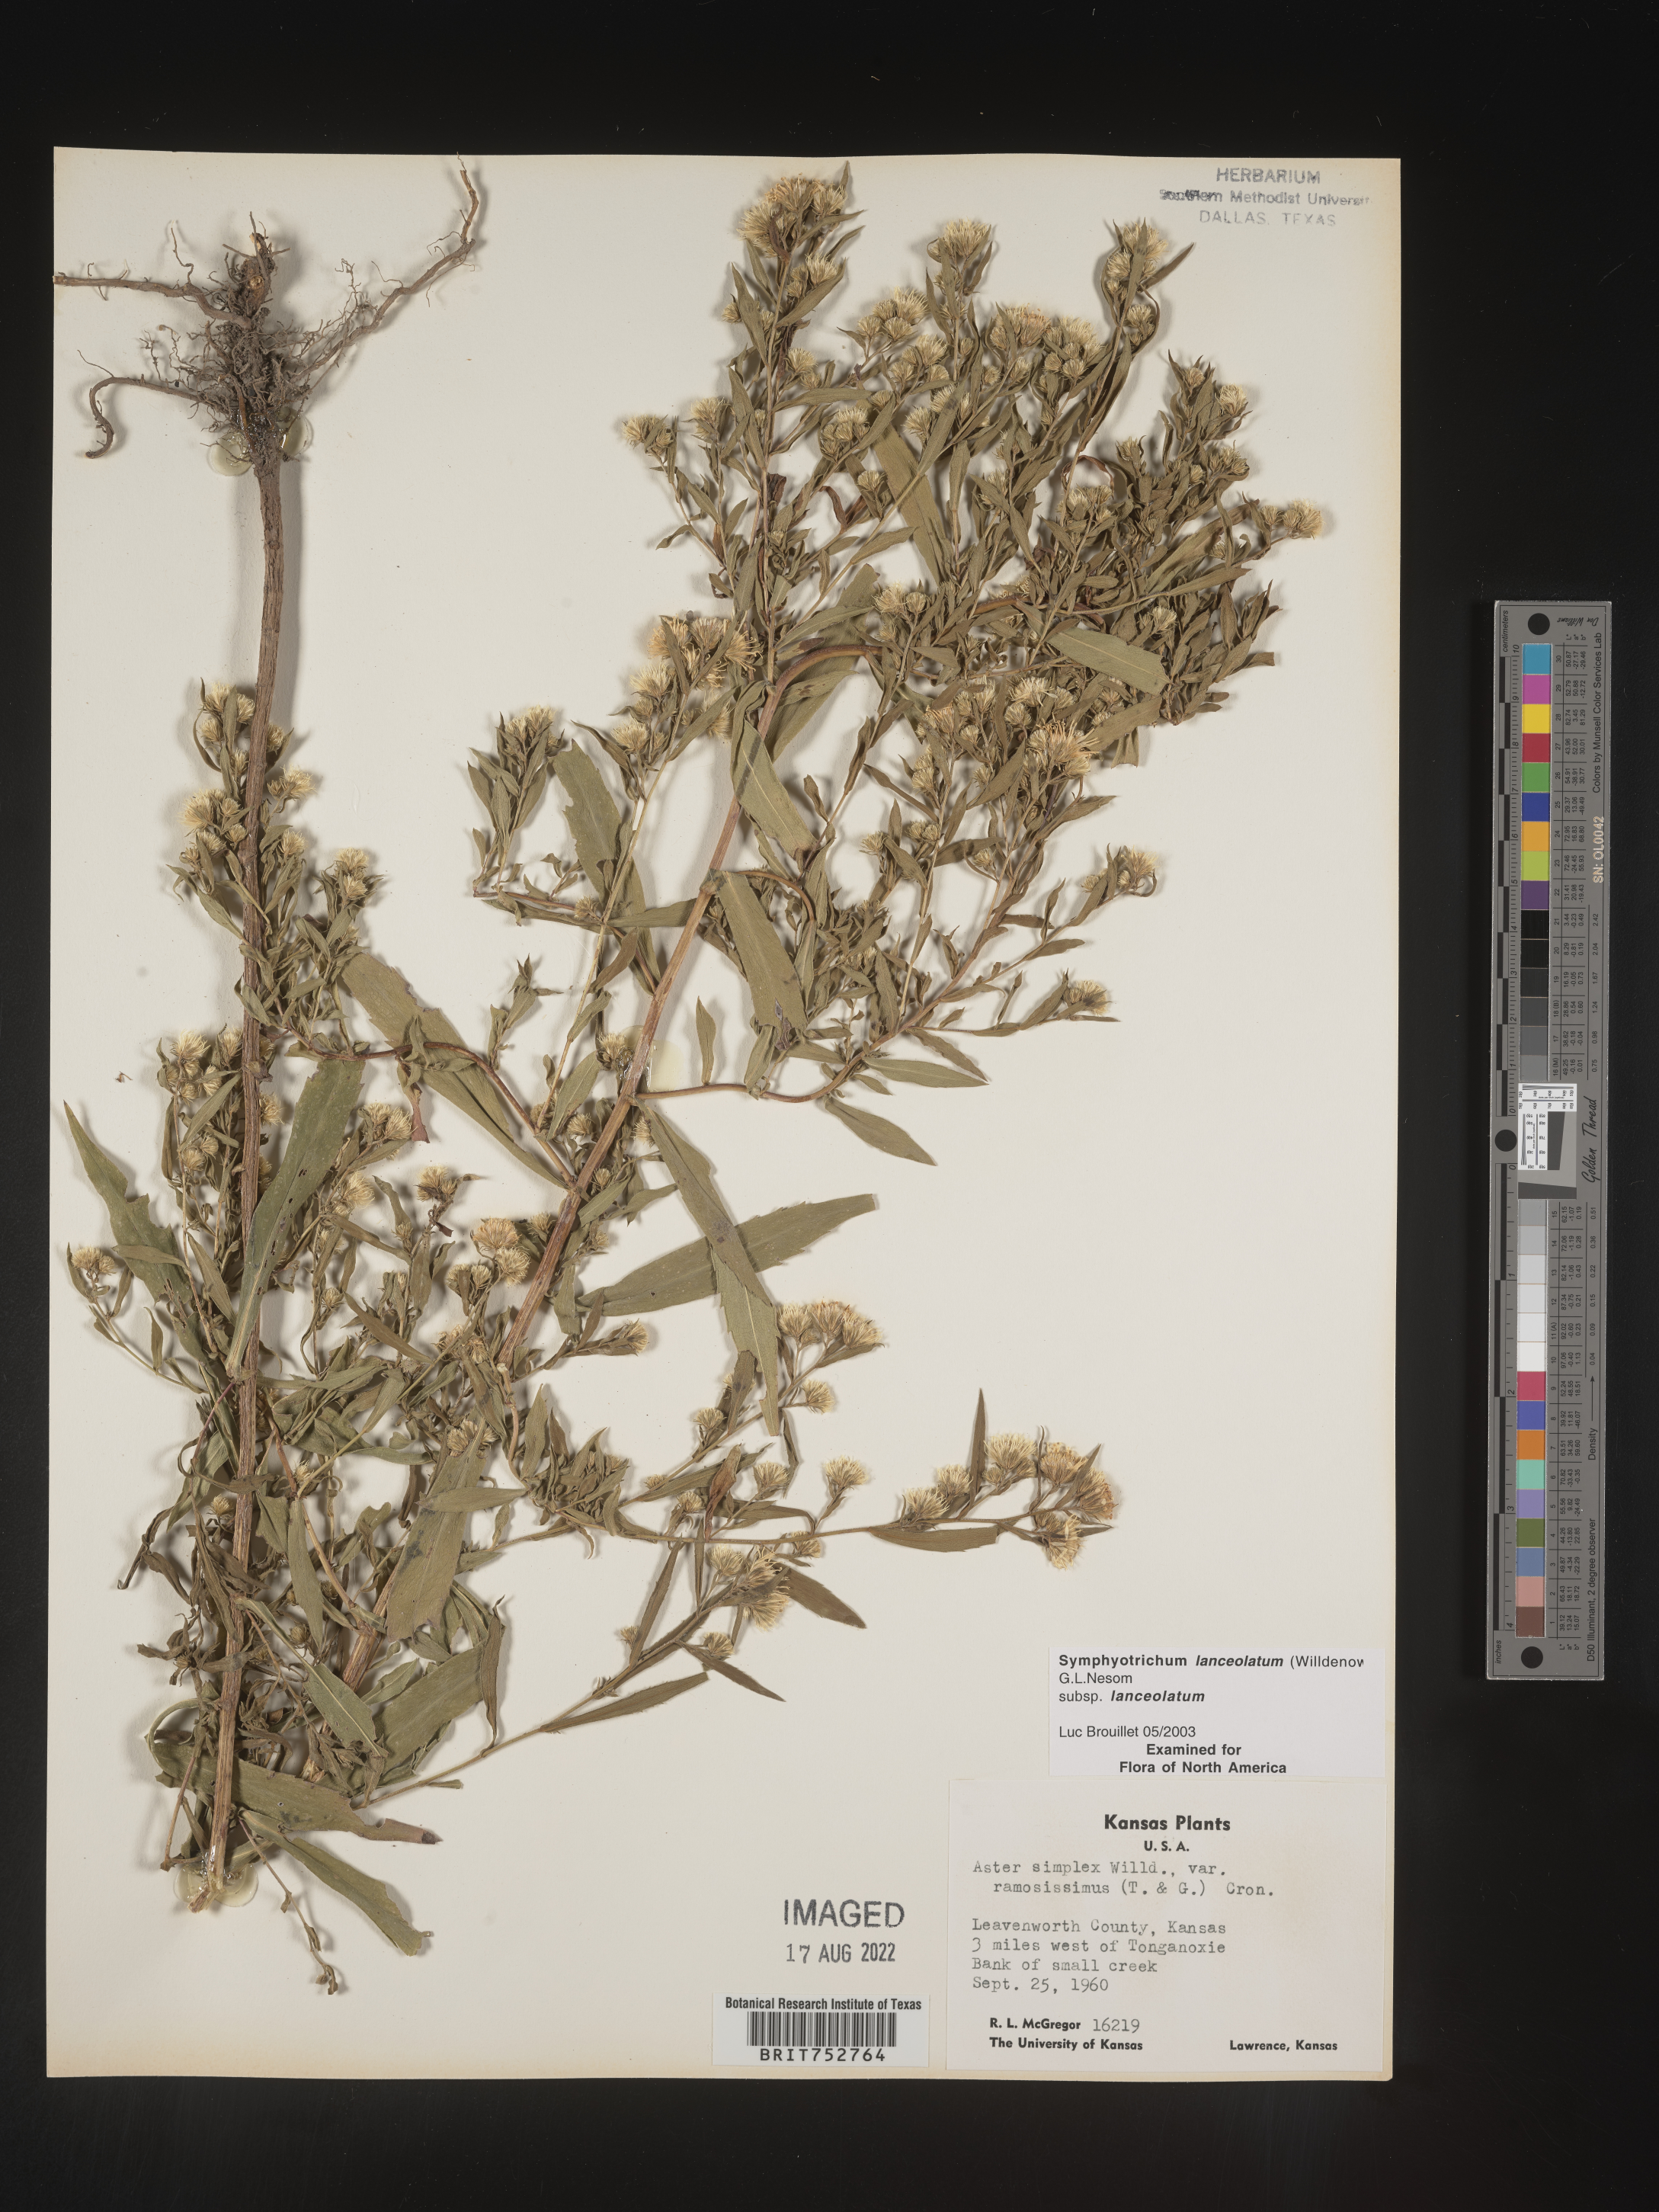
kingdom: Plantae
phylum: Tracheophyta
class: Magnoliopsida
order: Asterales
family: Asteraceae
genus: Symphyotrichum
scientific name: Symphyotrichum lanceolatum
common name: Panicled aster
